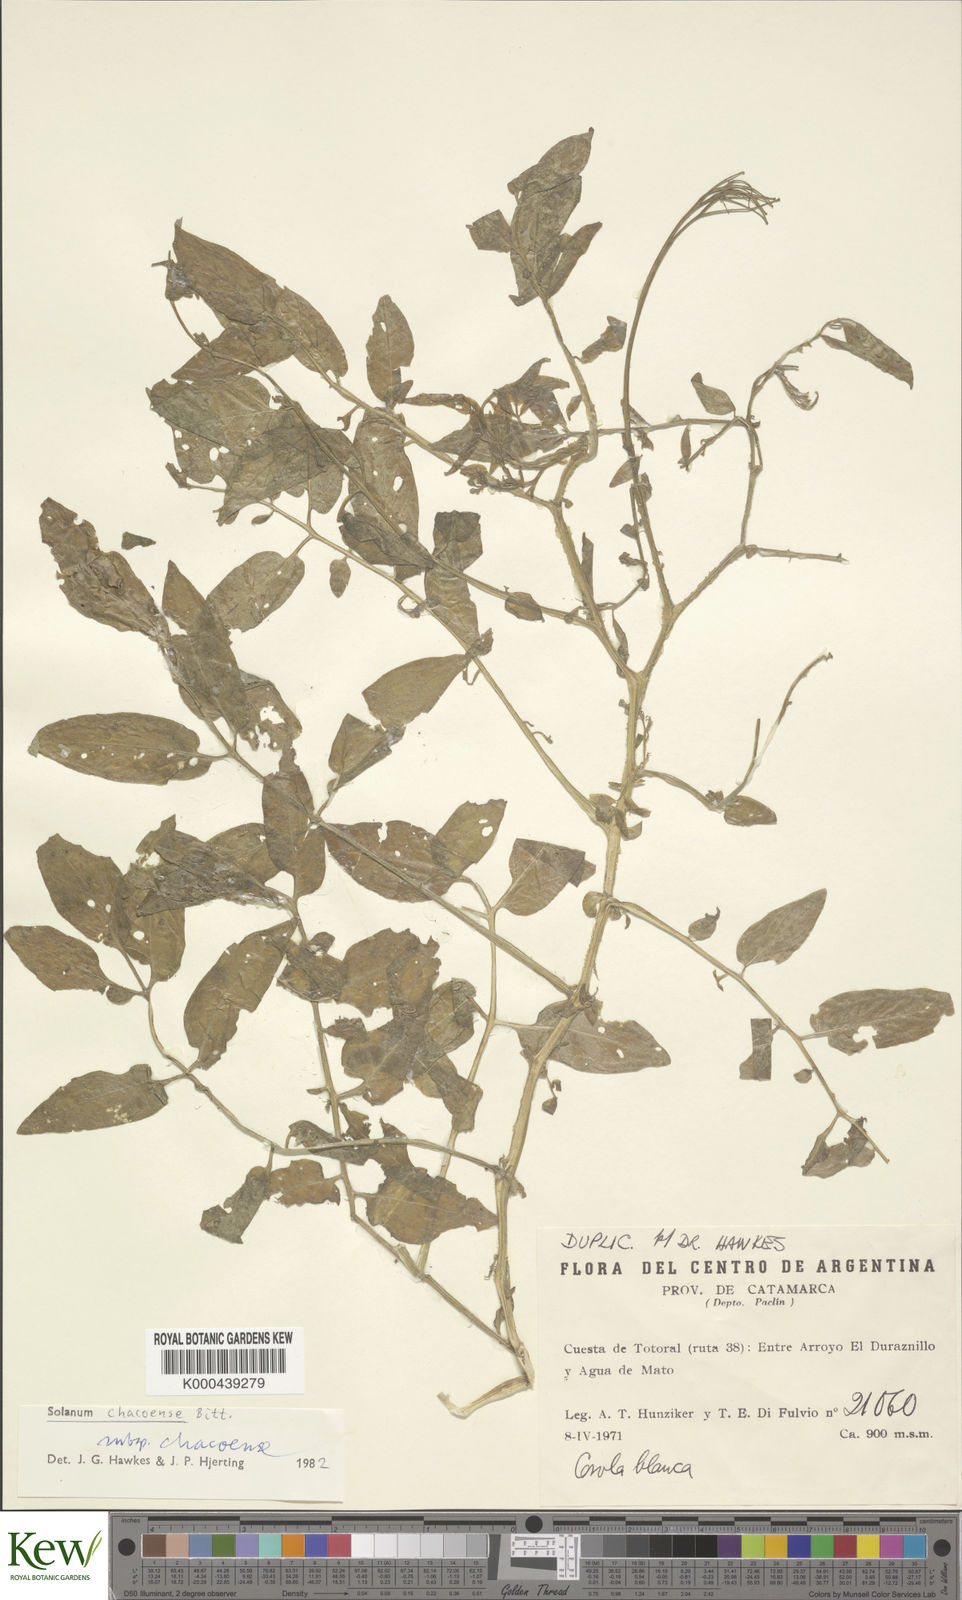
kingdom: Plantae
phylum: Tracheophyta
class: Magnoliopsida
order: Solanales
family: Solanaceae
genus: Solanum
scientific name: Solanum chacoense
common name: Chaco potato
